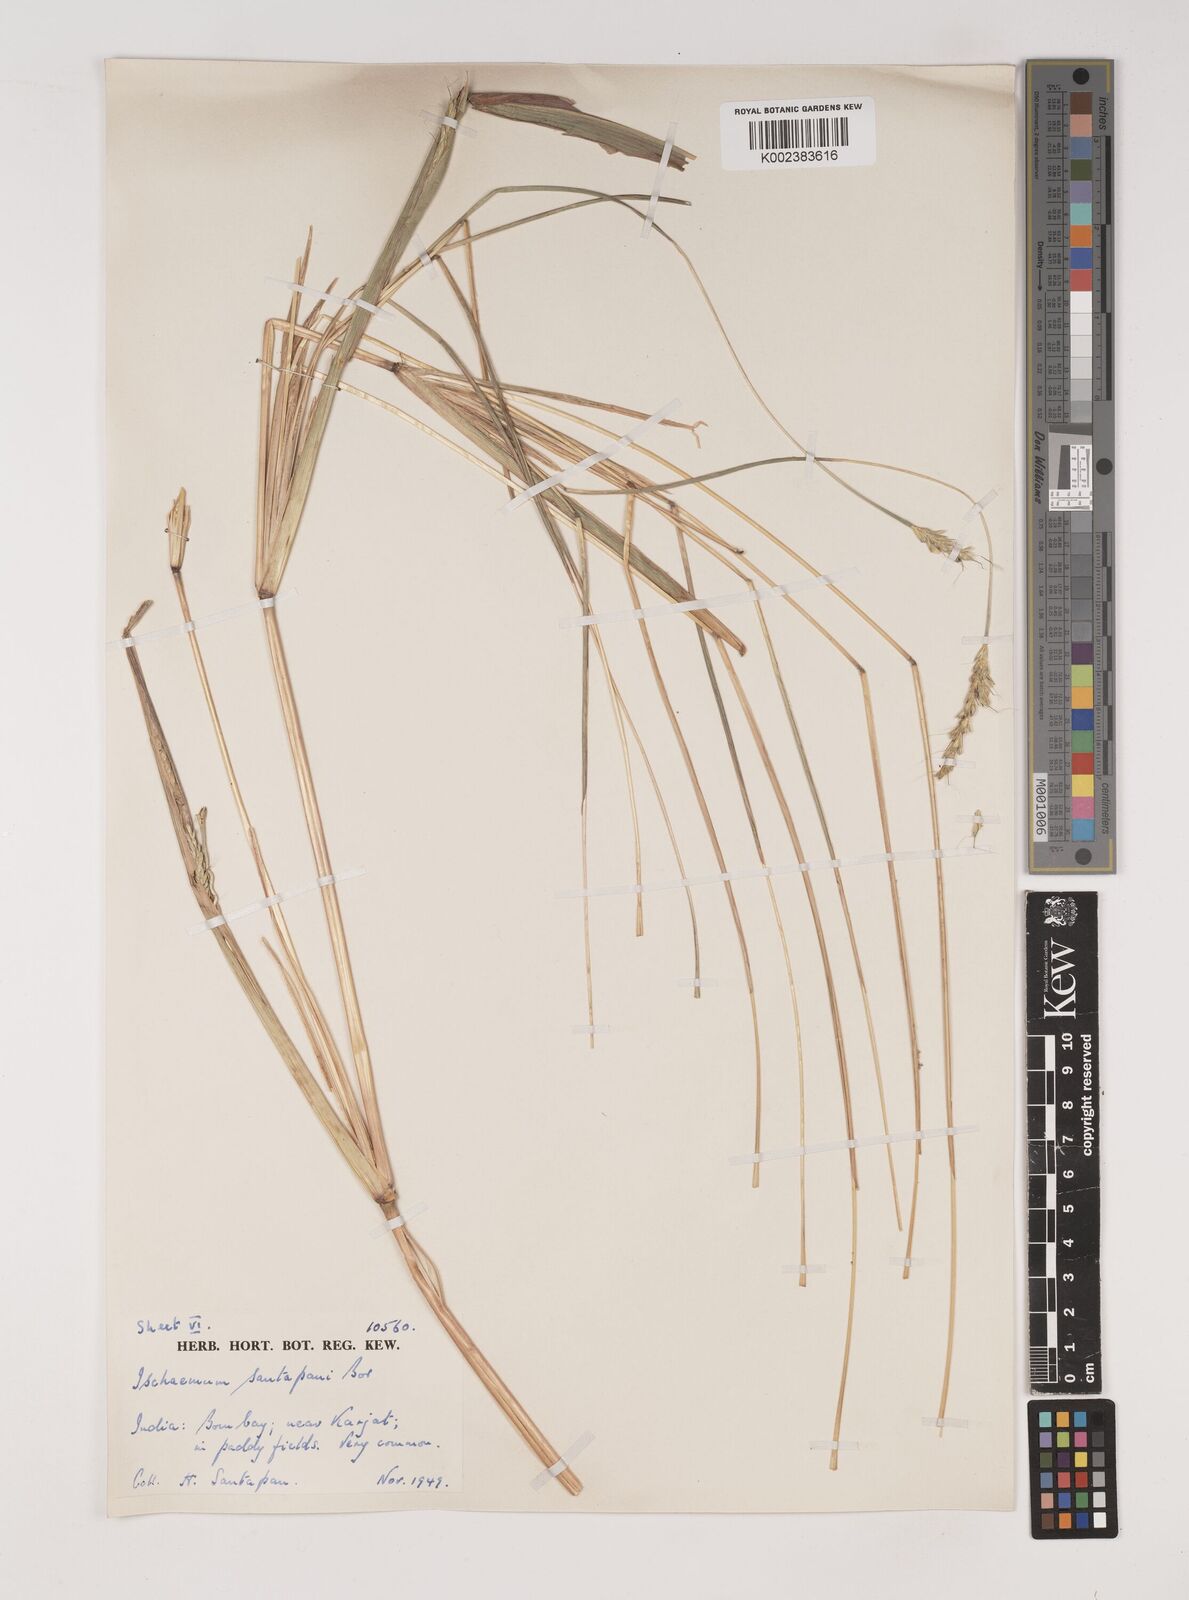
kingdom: Plantae
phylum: Tracheophyta
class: Liliopsida
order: Poales
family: Poaceae
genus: Ischaemum
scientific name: Ischaemum santapaui
